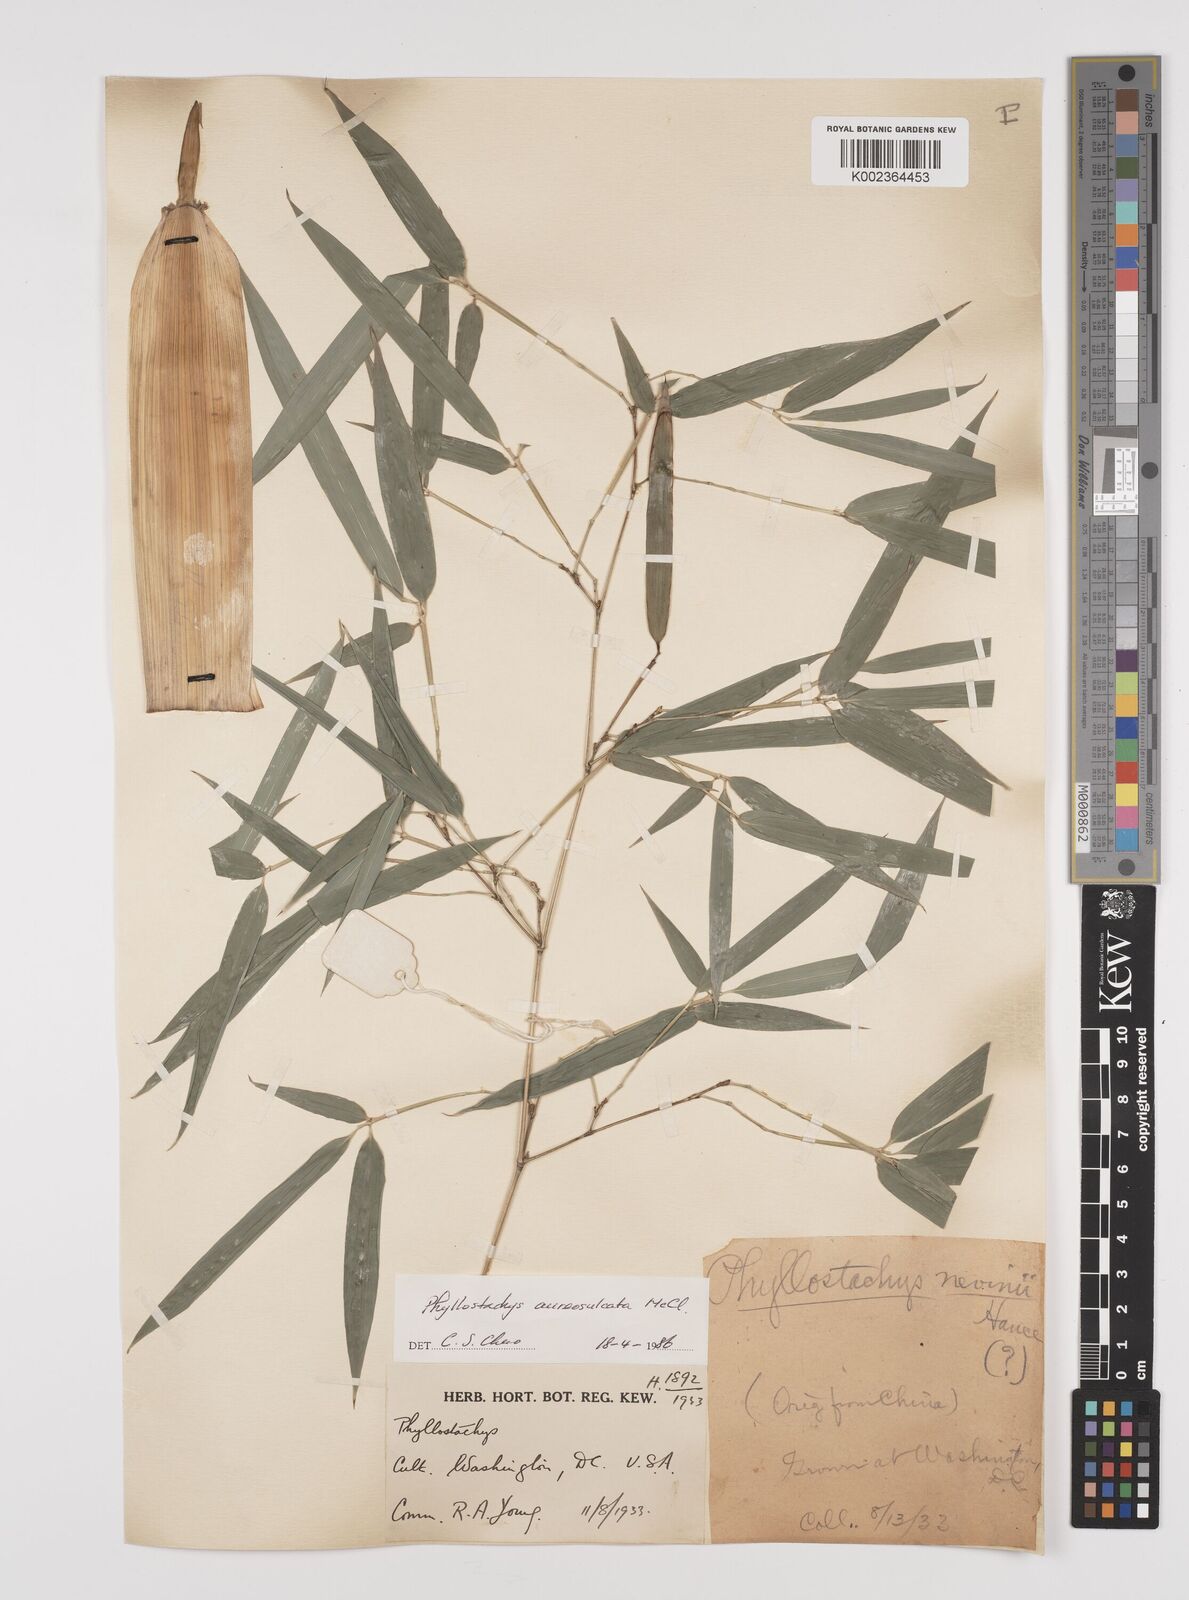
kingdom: Plantae
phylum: Tracheophyta
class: Liliopsida
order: Poales
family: Poaceae
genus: Phyllostachys
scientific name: Phyllostachys aureosulcata
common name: Yellow groove bamboo
